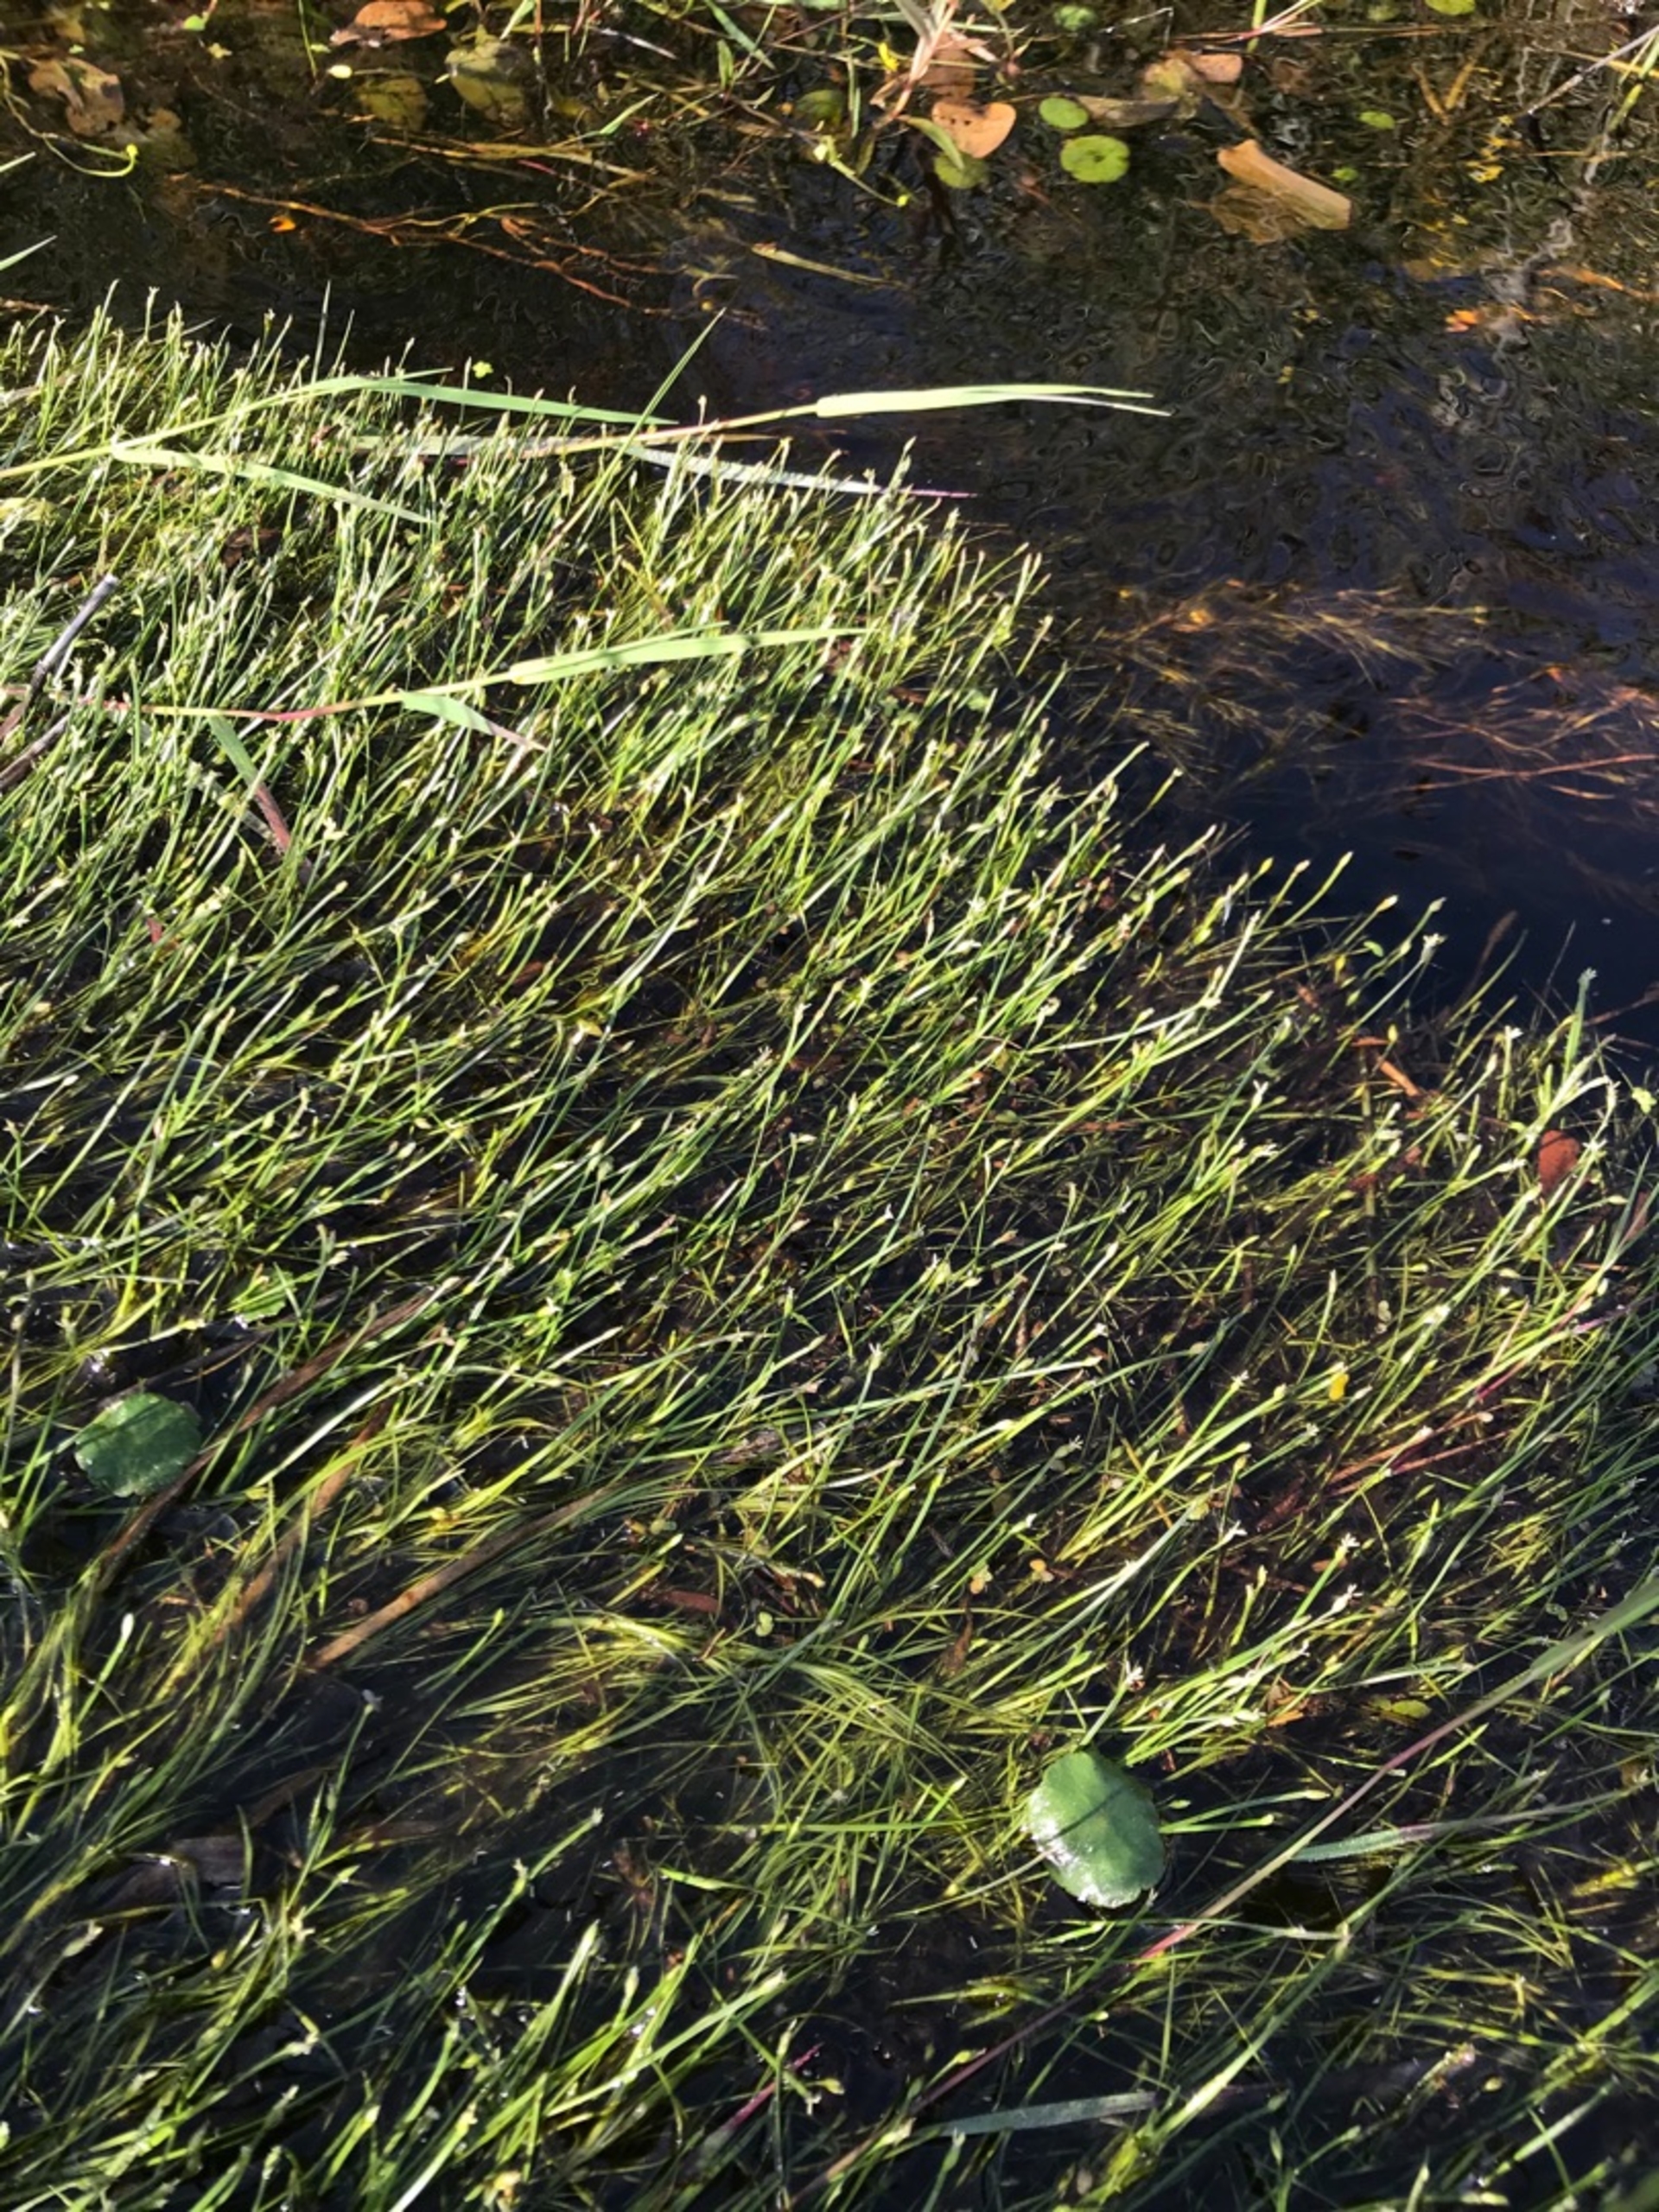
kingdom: Plantae
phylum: Tracheophyta
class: Liliopsida
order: Poales
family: Cyperaceae
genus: Isolepis
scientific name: Isolepis fluitans
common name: Flydende kogleaks
